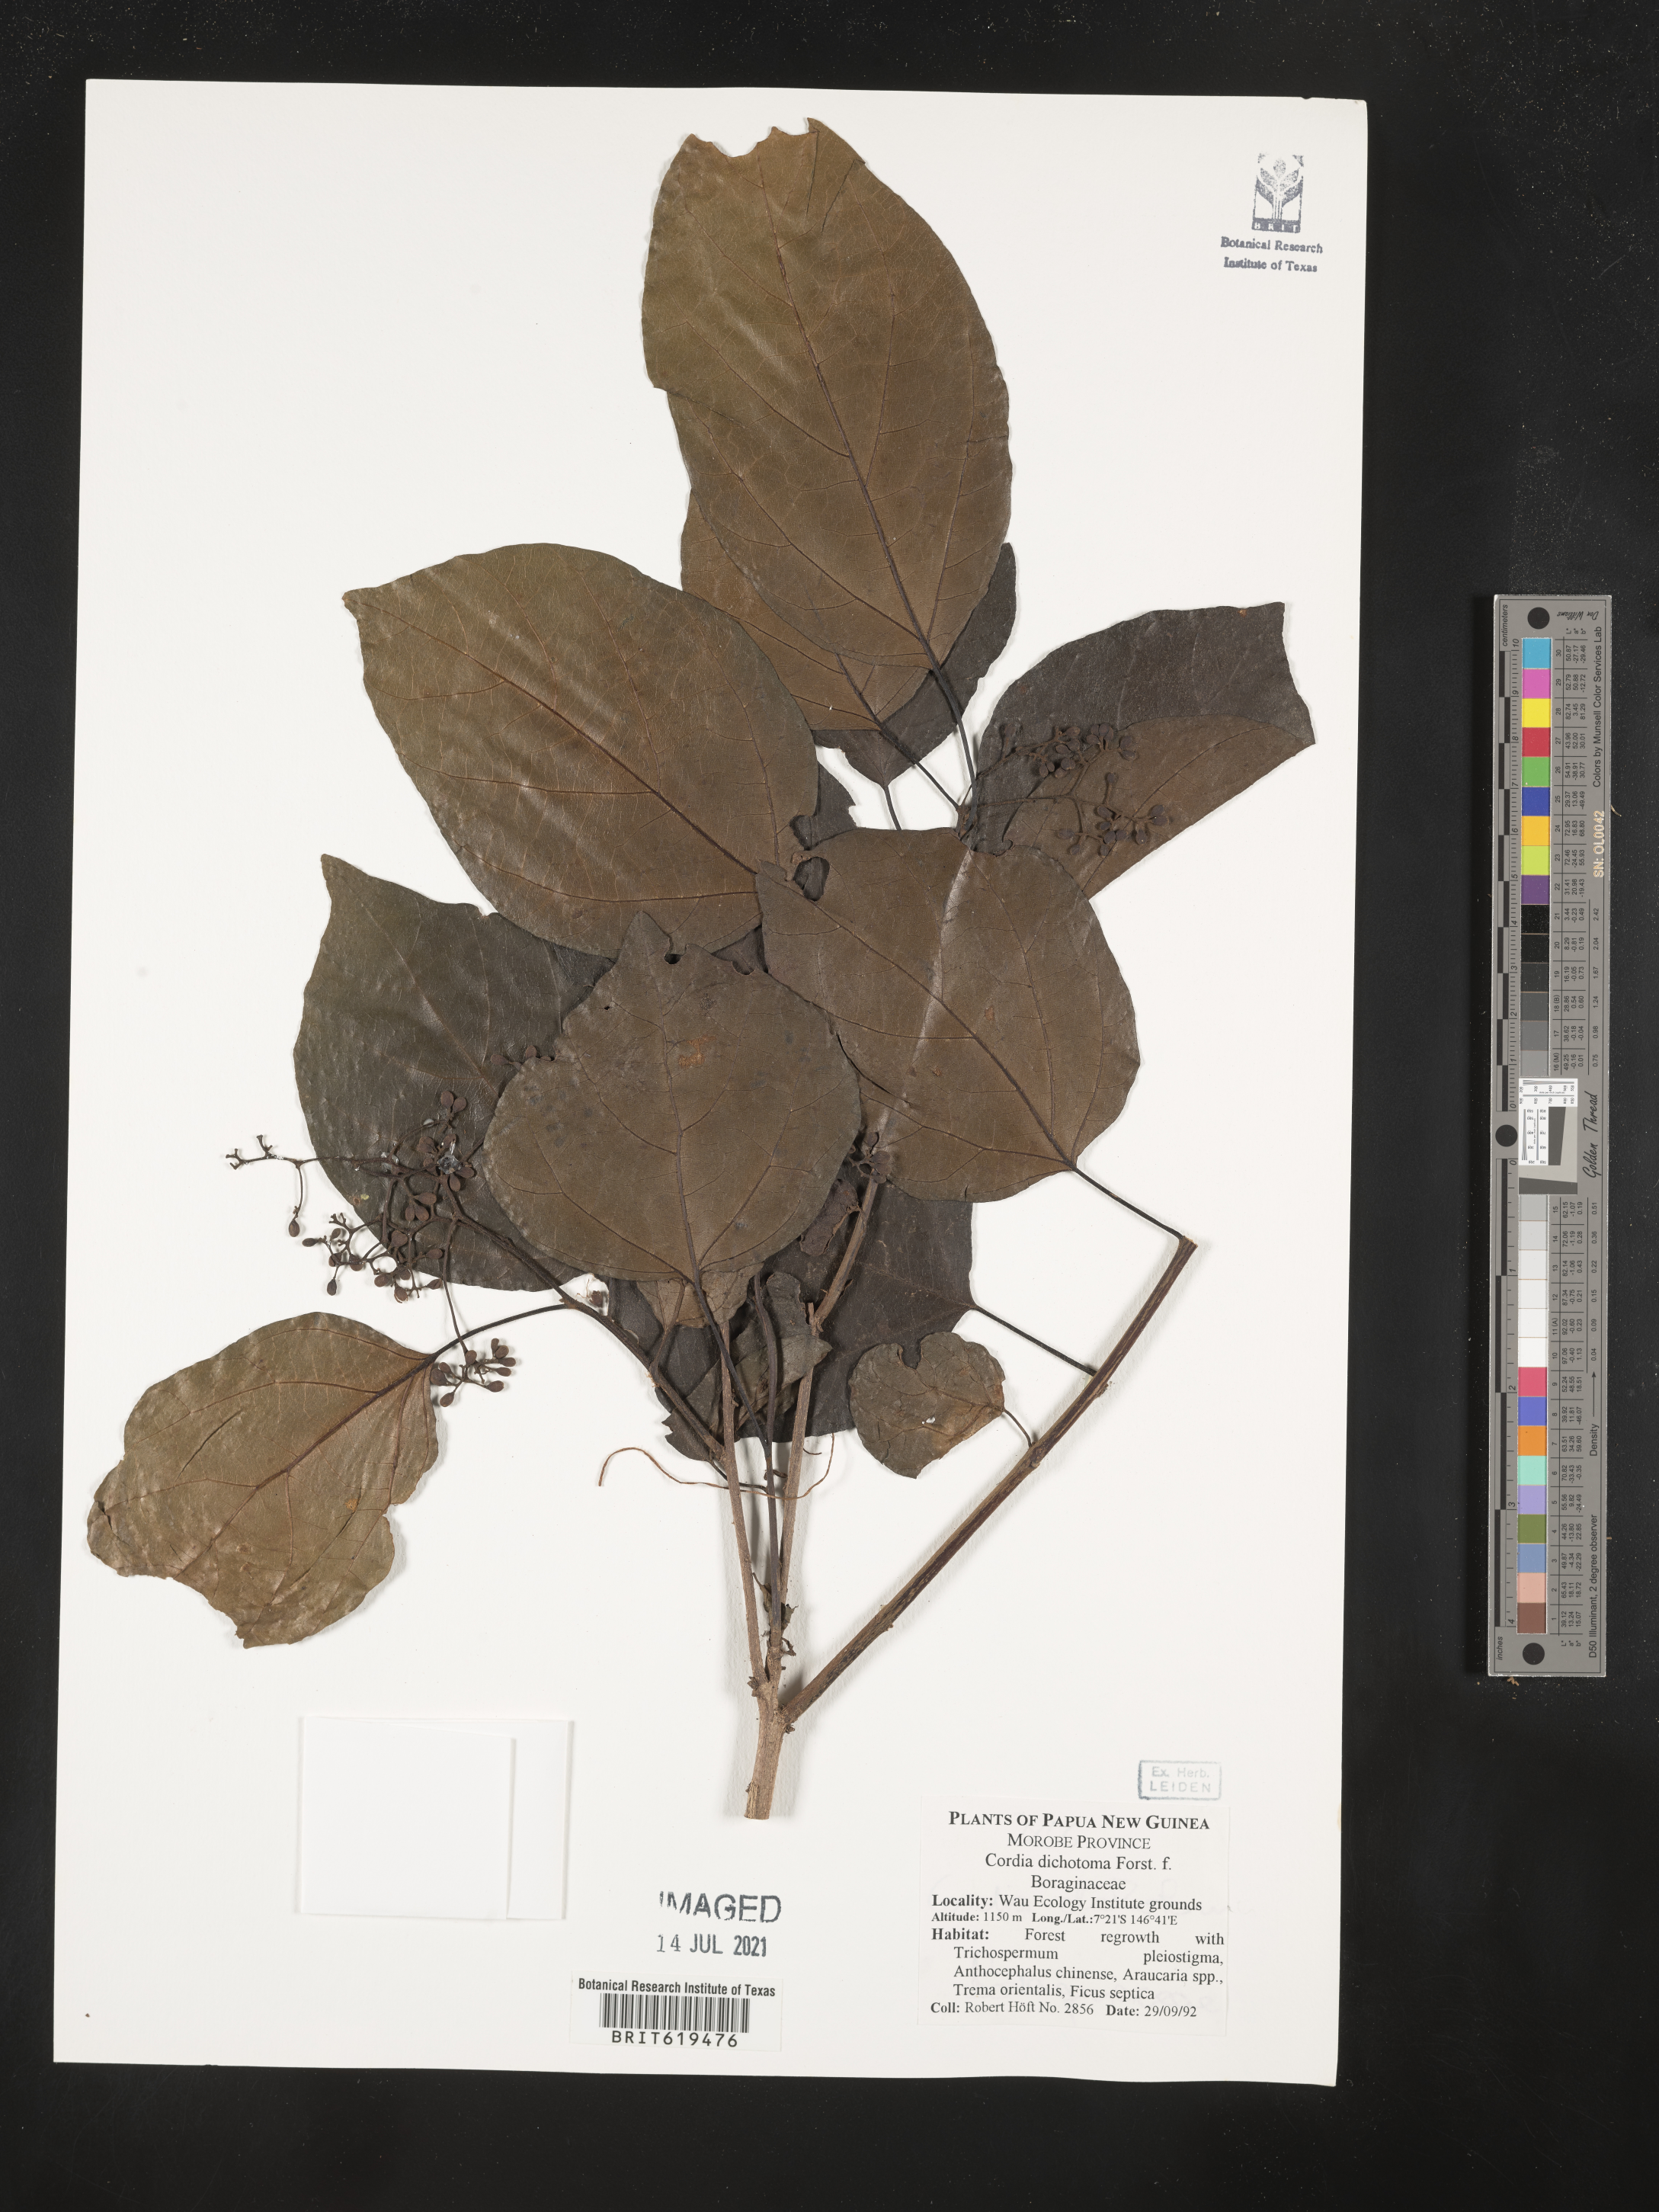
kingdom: Plantae
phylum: Tracheophyta
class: Magnoliopsida
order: Boraginales
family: Cordiaceae
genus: Cordia
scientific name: Cordia dichotoma
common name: Fragrant manjack
